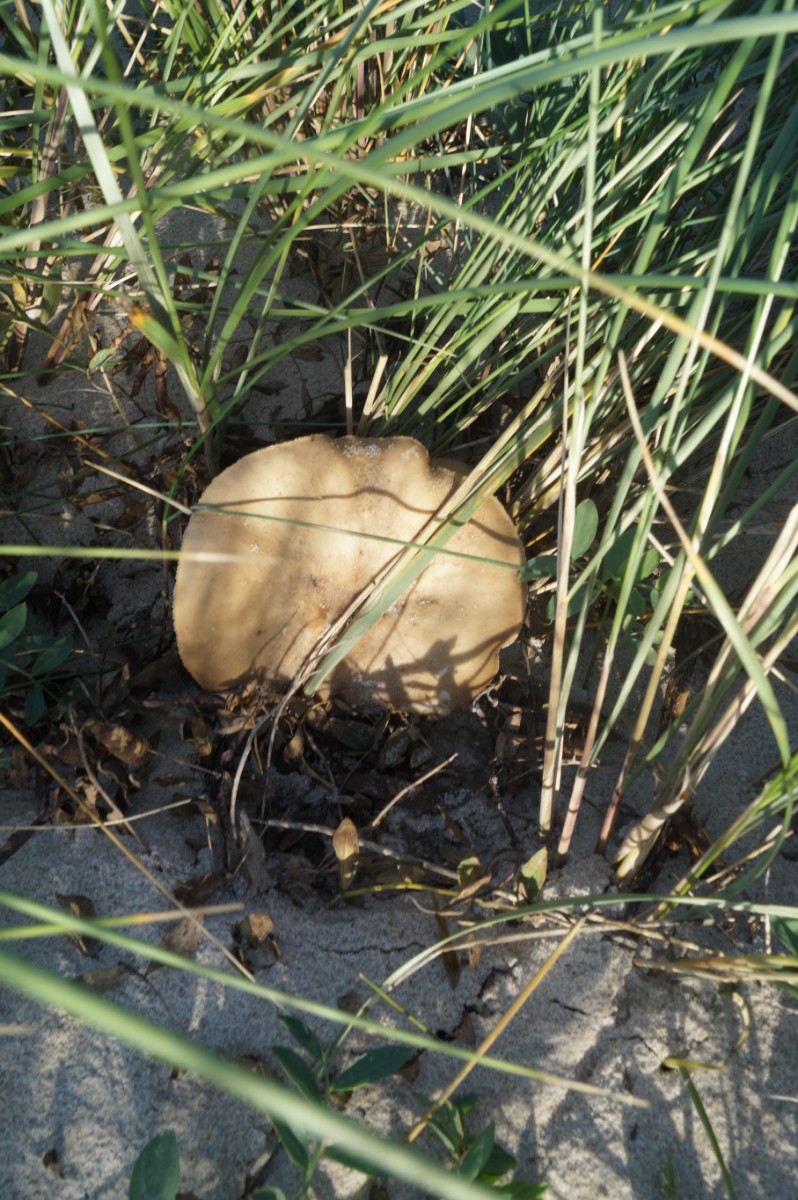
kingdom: Fungi
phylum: Basidiomycota
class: Agaricomycetes
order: Agaricales
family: Tricholomataceae
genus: Melanoleuca
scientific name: Melanoleuca
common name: munkehat
